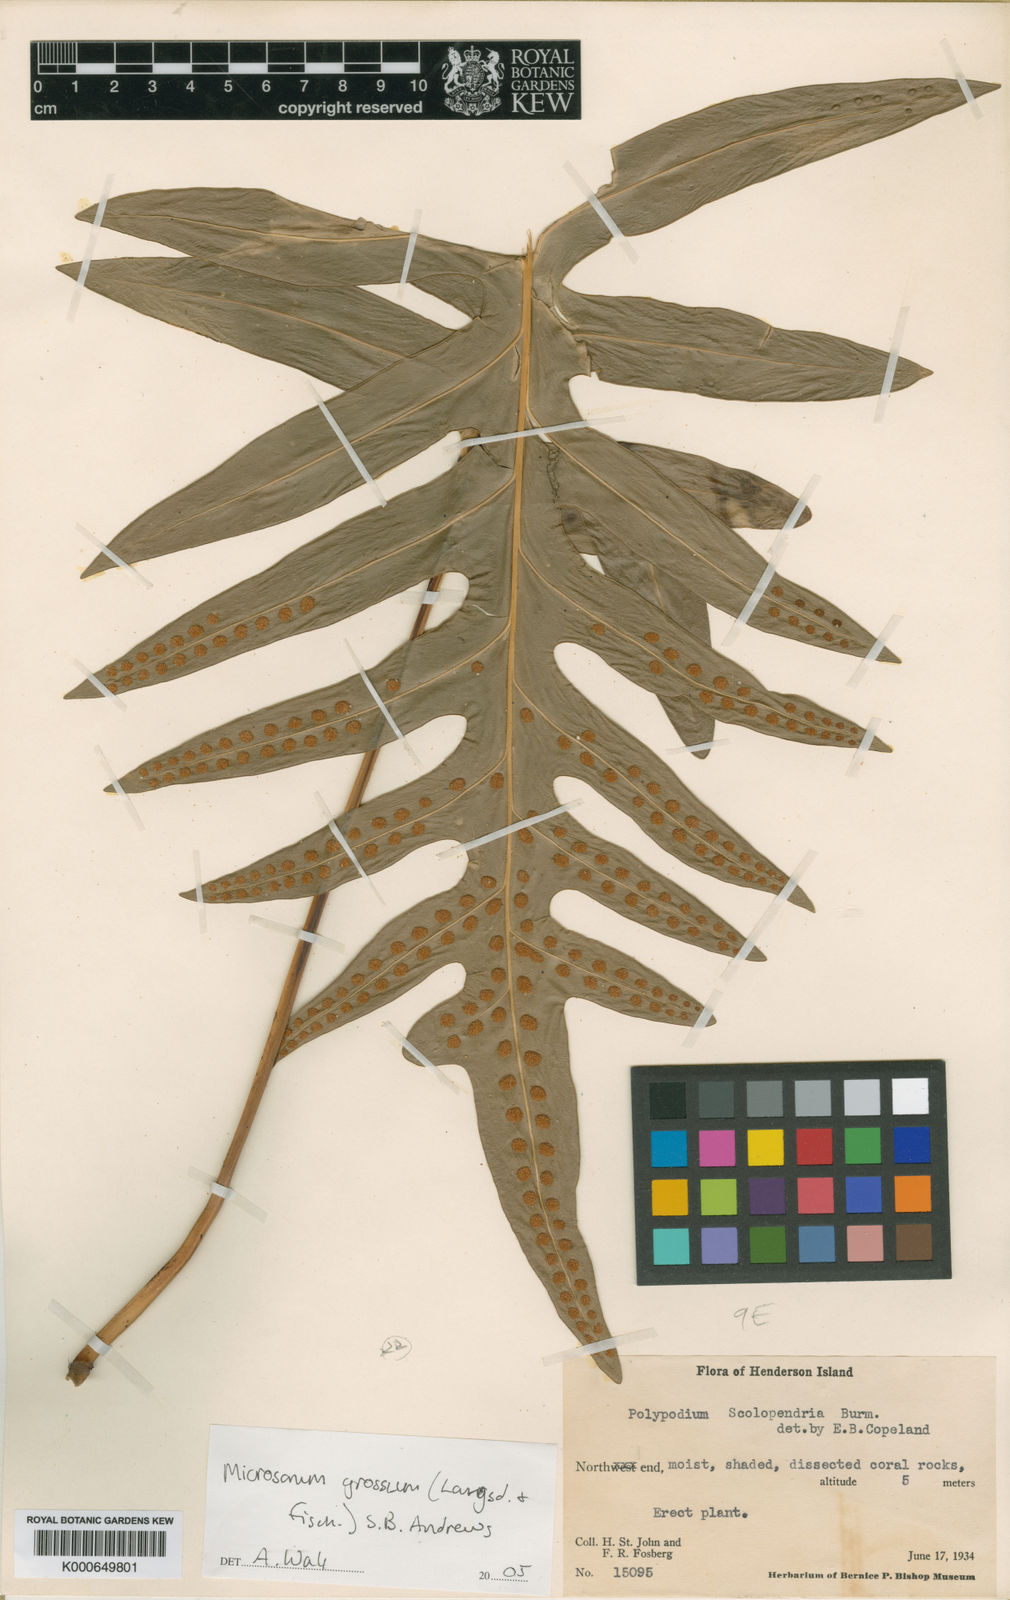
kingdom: Plantae
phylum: Tracheophyta
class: Polypodiopsida
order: Polypodiales
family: Polypodiaceae
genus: Microsorum
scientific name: Microsorum grossum
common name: Musk fern
